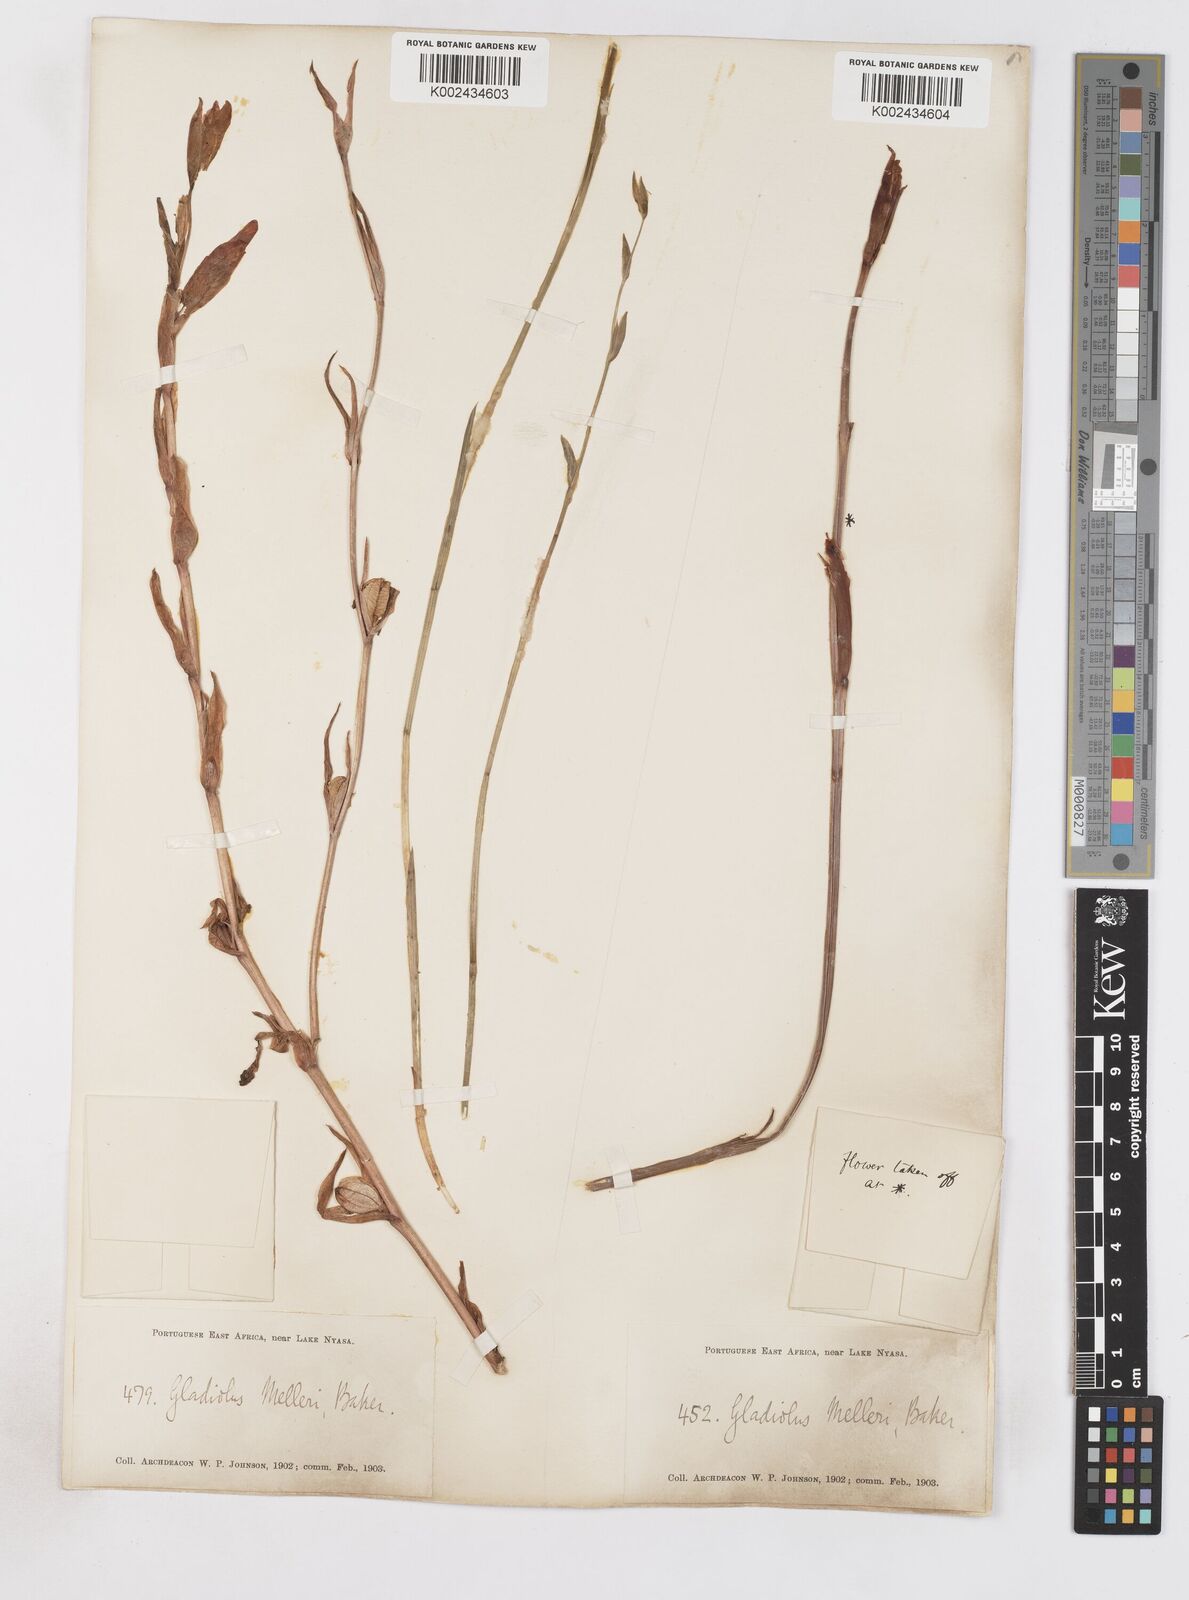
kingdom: Plantae
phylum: Tracheophyta
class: Liliopsida
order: Asparagales
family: Iridaceae
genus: Gladiolus
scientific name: Gladiolus melleri
